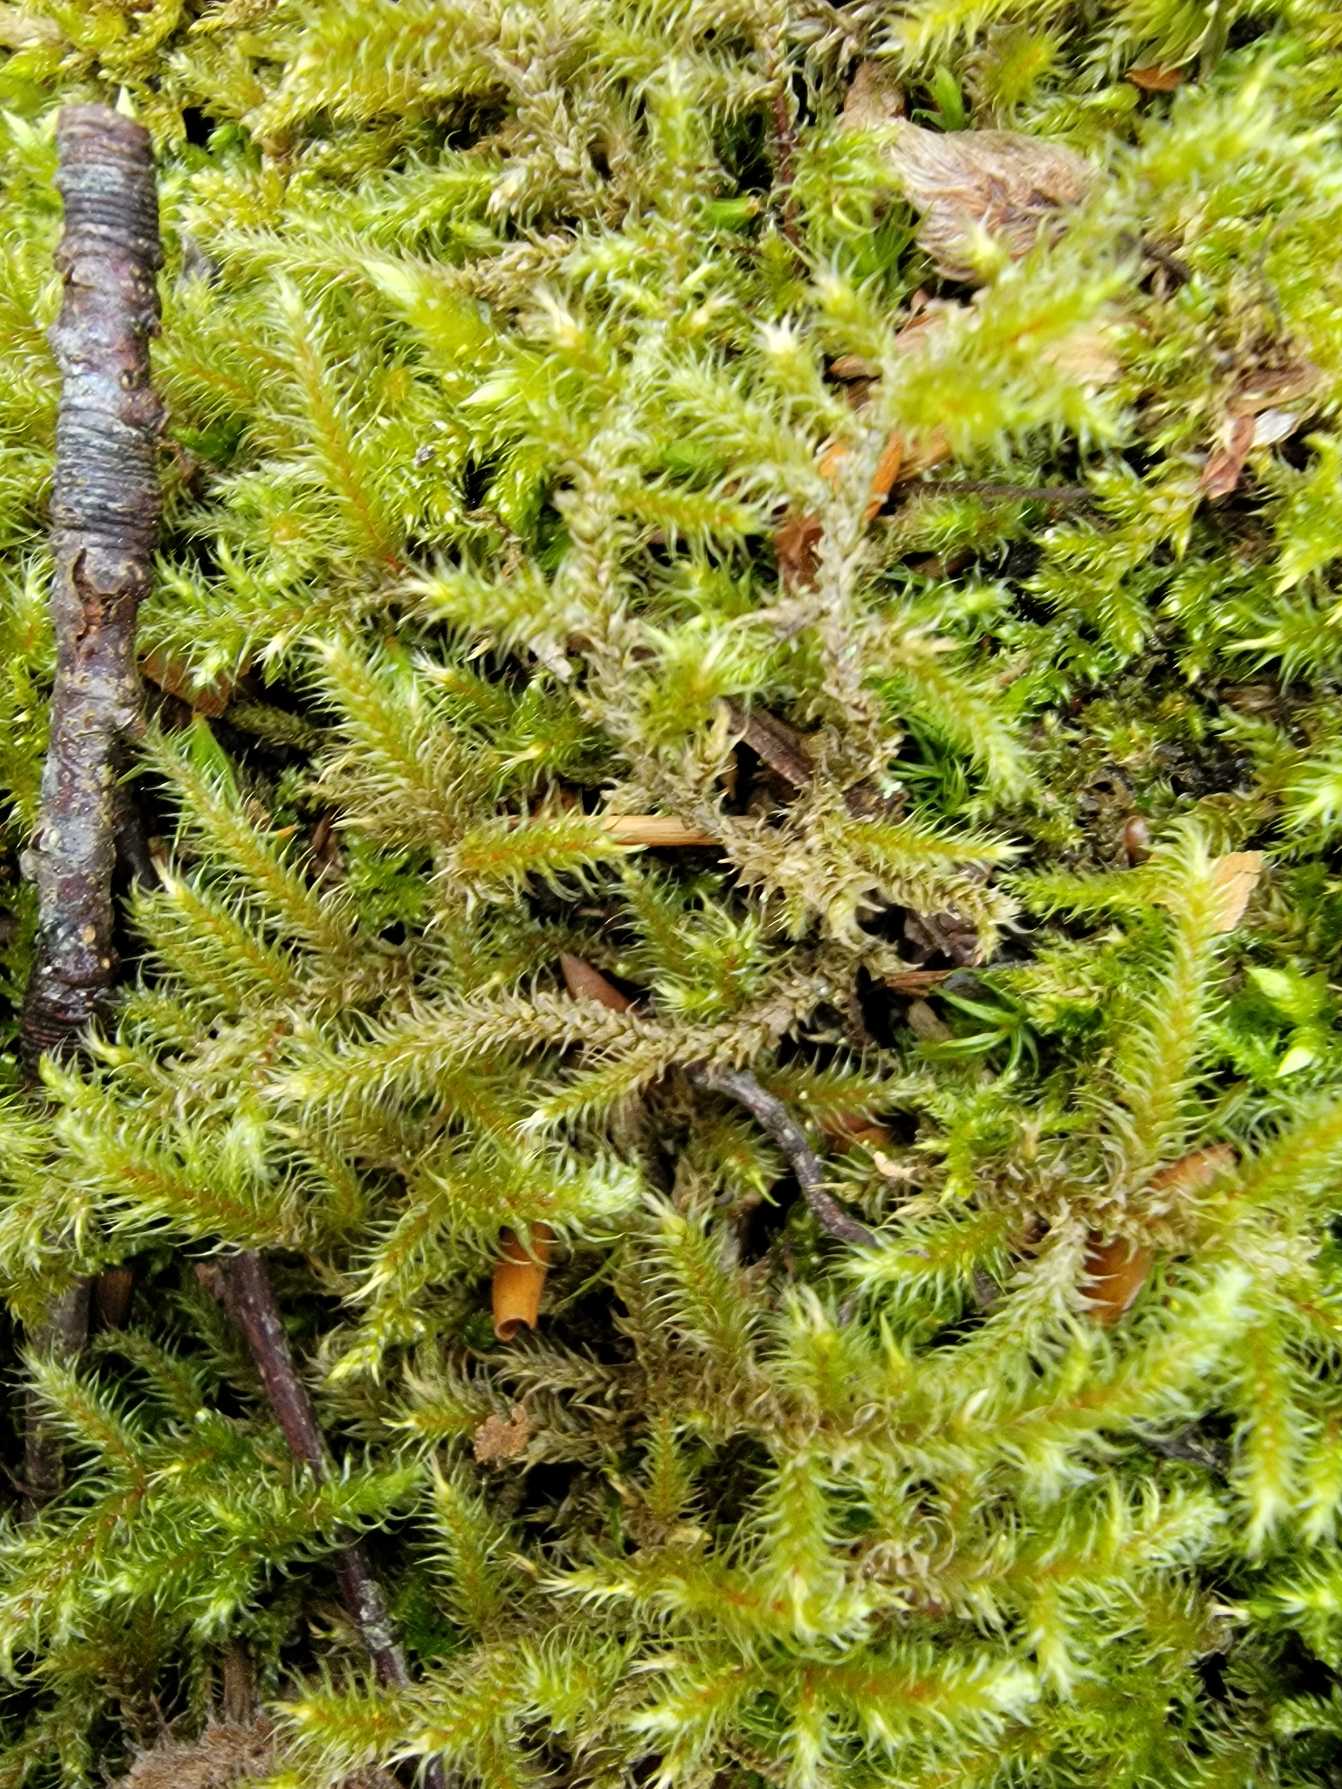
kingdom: Plantae
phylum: Bryophyta
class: Bryopsida
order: Hypnales
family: Hylocomiaceae
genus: Rhytidiadelphus
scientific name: Rhytidiadelphus loreus
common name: Ulvefod-kransemos
